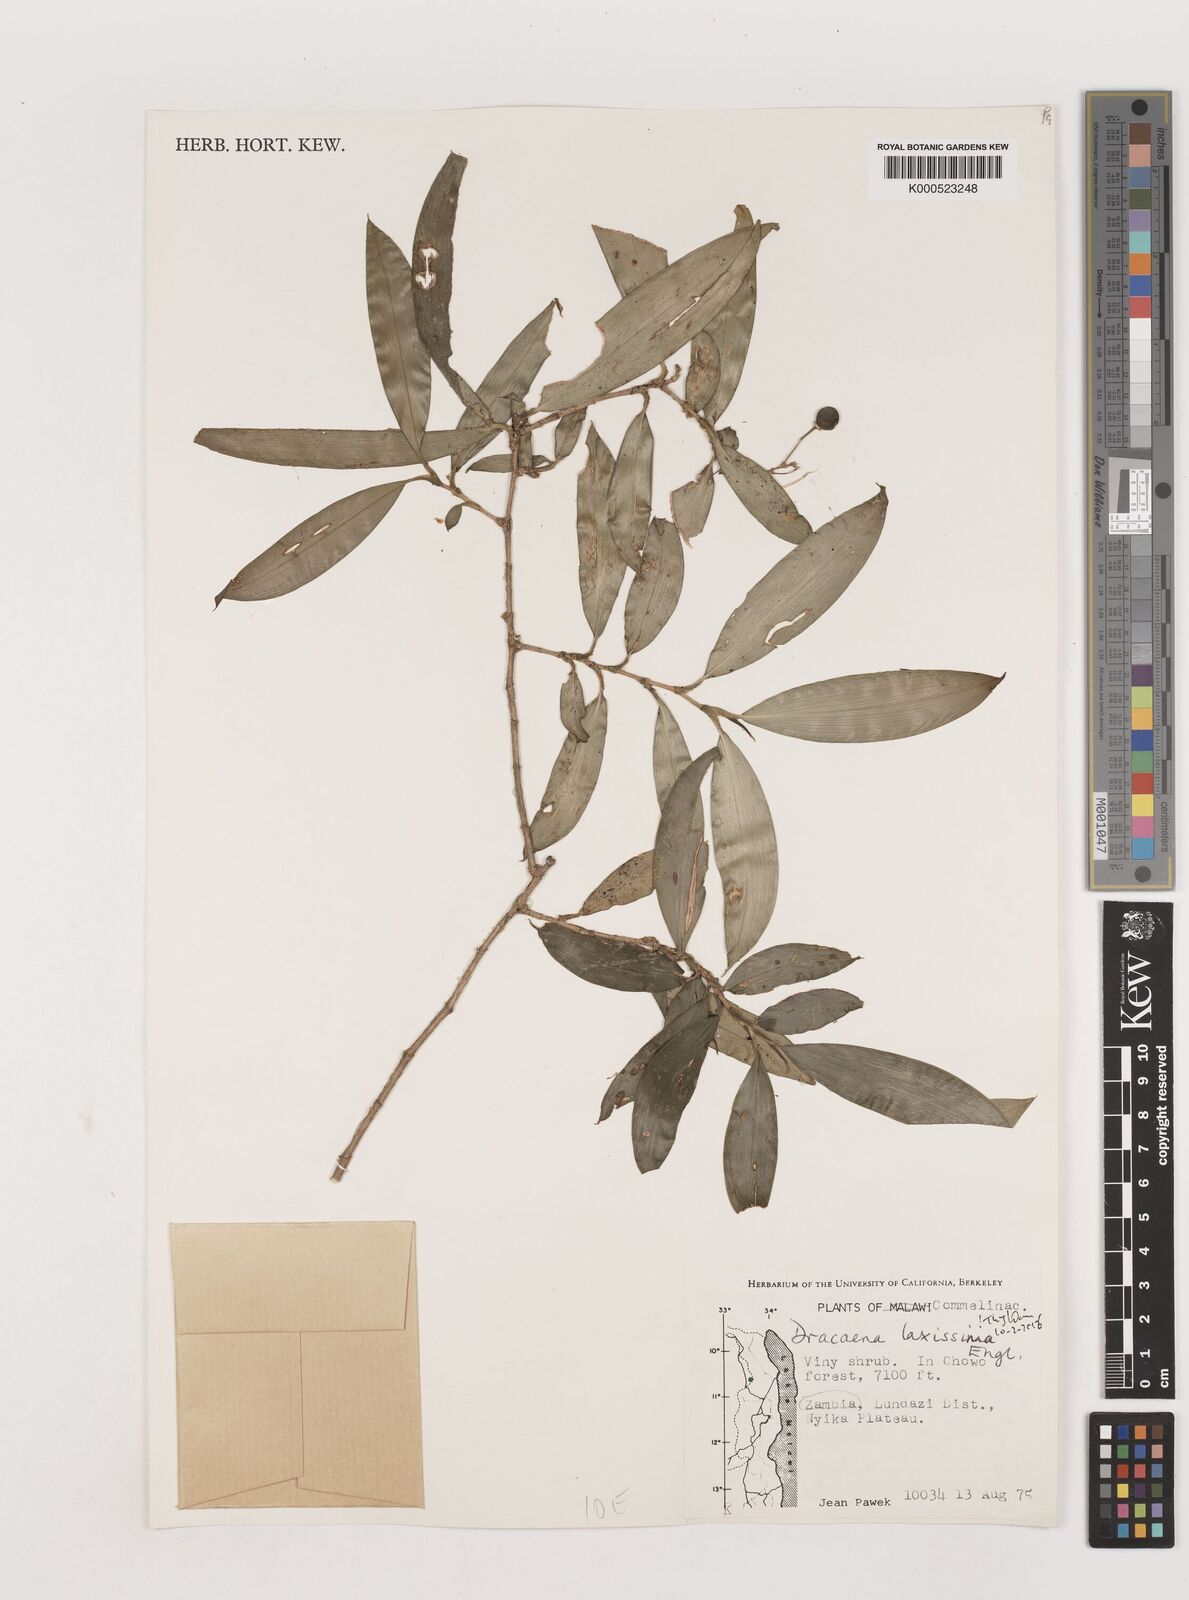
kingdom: Plantae
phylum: Tracheophyta
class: Liliopsida
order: Asparagales
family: Asparagaceae
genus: Dracaena
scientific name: Dracaena laxissima
